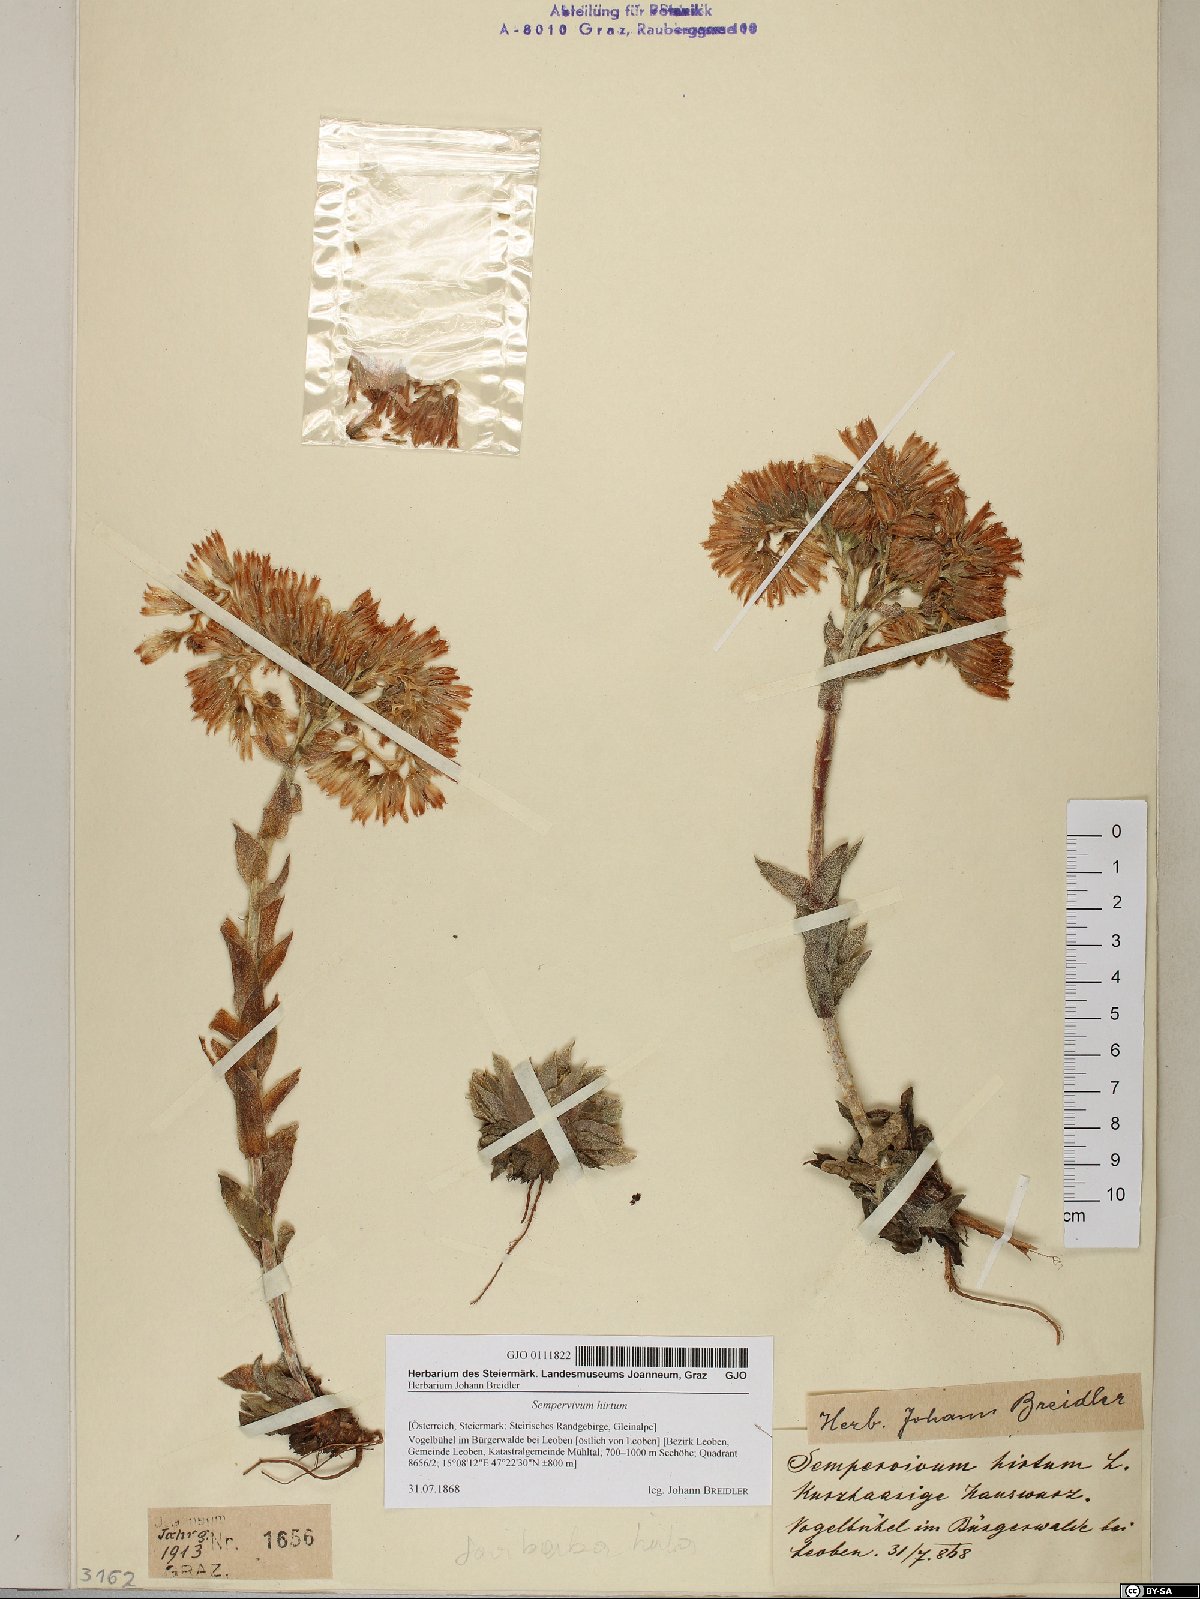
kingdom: Plantae
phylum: Tracheophyta
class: Magnoliopsida
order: Saxifragales
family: Crassulaceae
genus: Sempervivum
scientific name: Sempervivum globiferum
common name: Rolling hen-and-chicks
